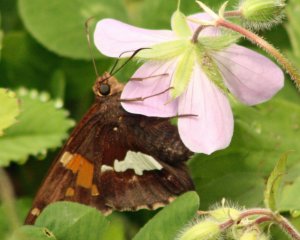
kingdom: Animalia
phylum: Arthropoda
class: Insecta
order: Lepidoptera
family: Hesperiidae
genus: Epargyreus
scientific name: Epargyreus clarus
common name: Silver-spotted Skipper
